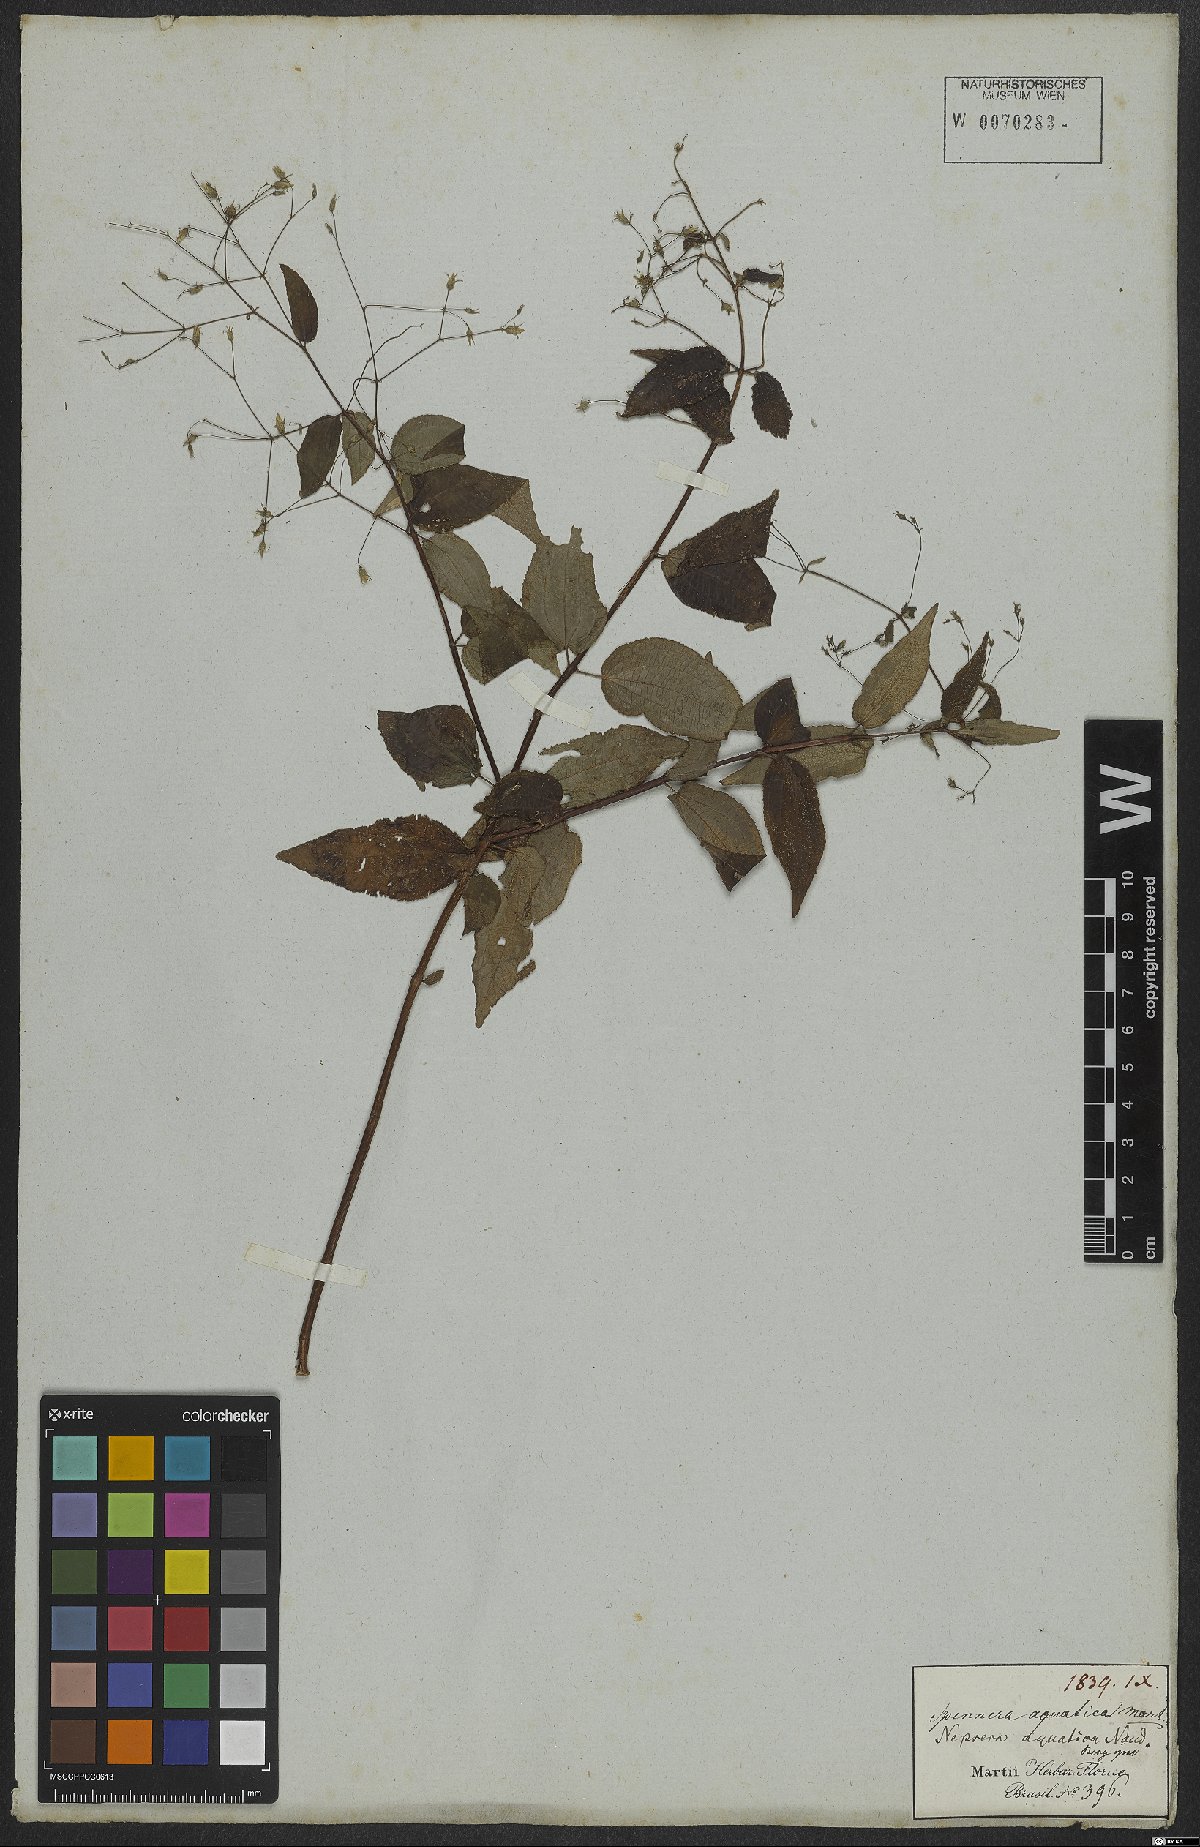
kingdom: Plantae
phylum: Tracheophyta
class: Magnoliopsida
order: Myrtales
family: Melastomataceae
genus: Nepsera
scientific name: Nepsera aquatica
